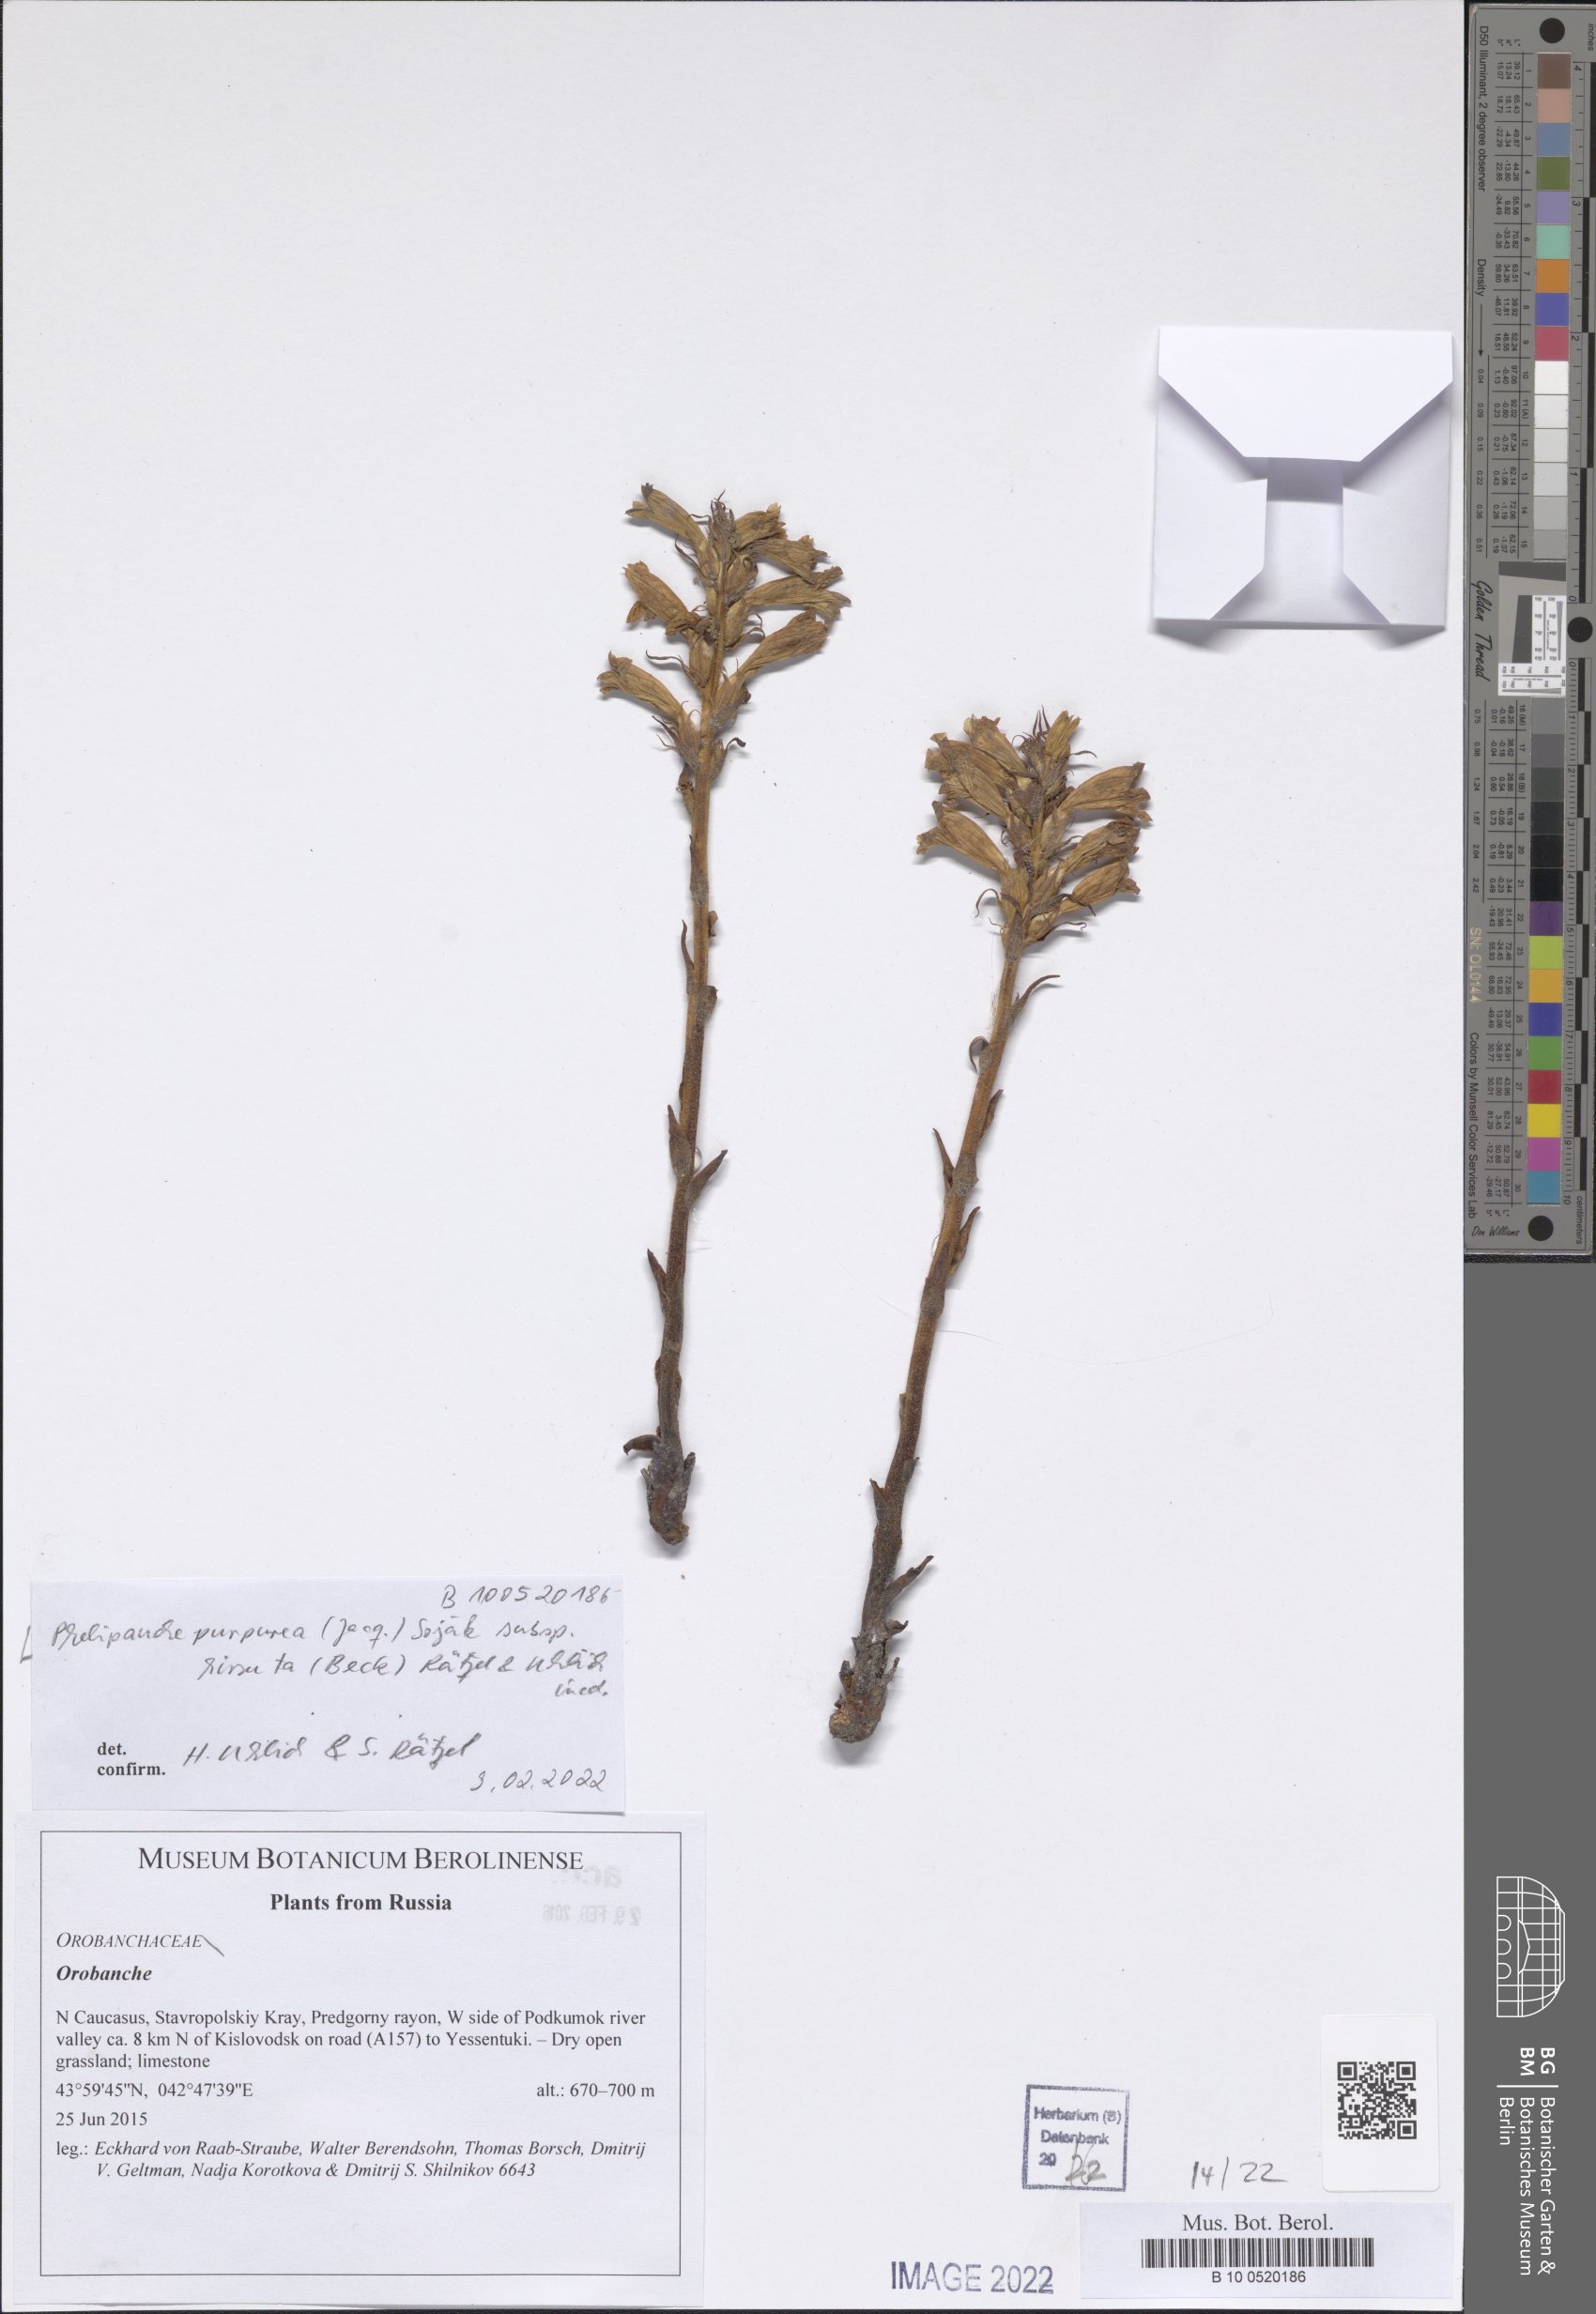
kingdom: Plantae
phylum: Tracheophyta
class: Magnoliopsida
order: Lamiales
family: Orobanchaceae
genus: Phelipanche
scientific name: Phelipanche purpurea
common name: Purple broomrape
